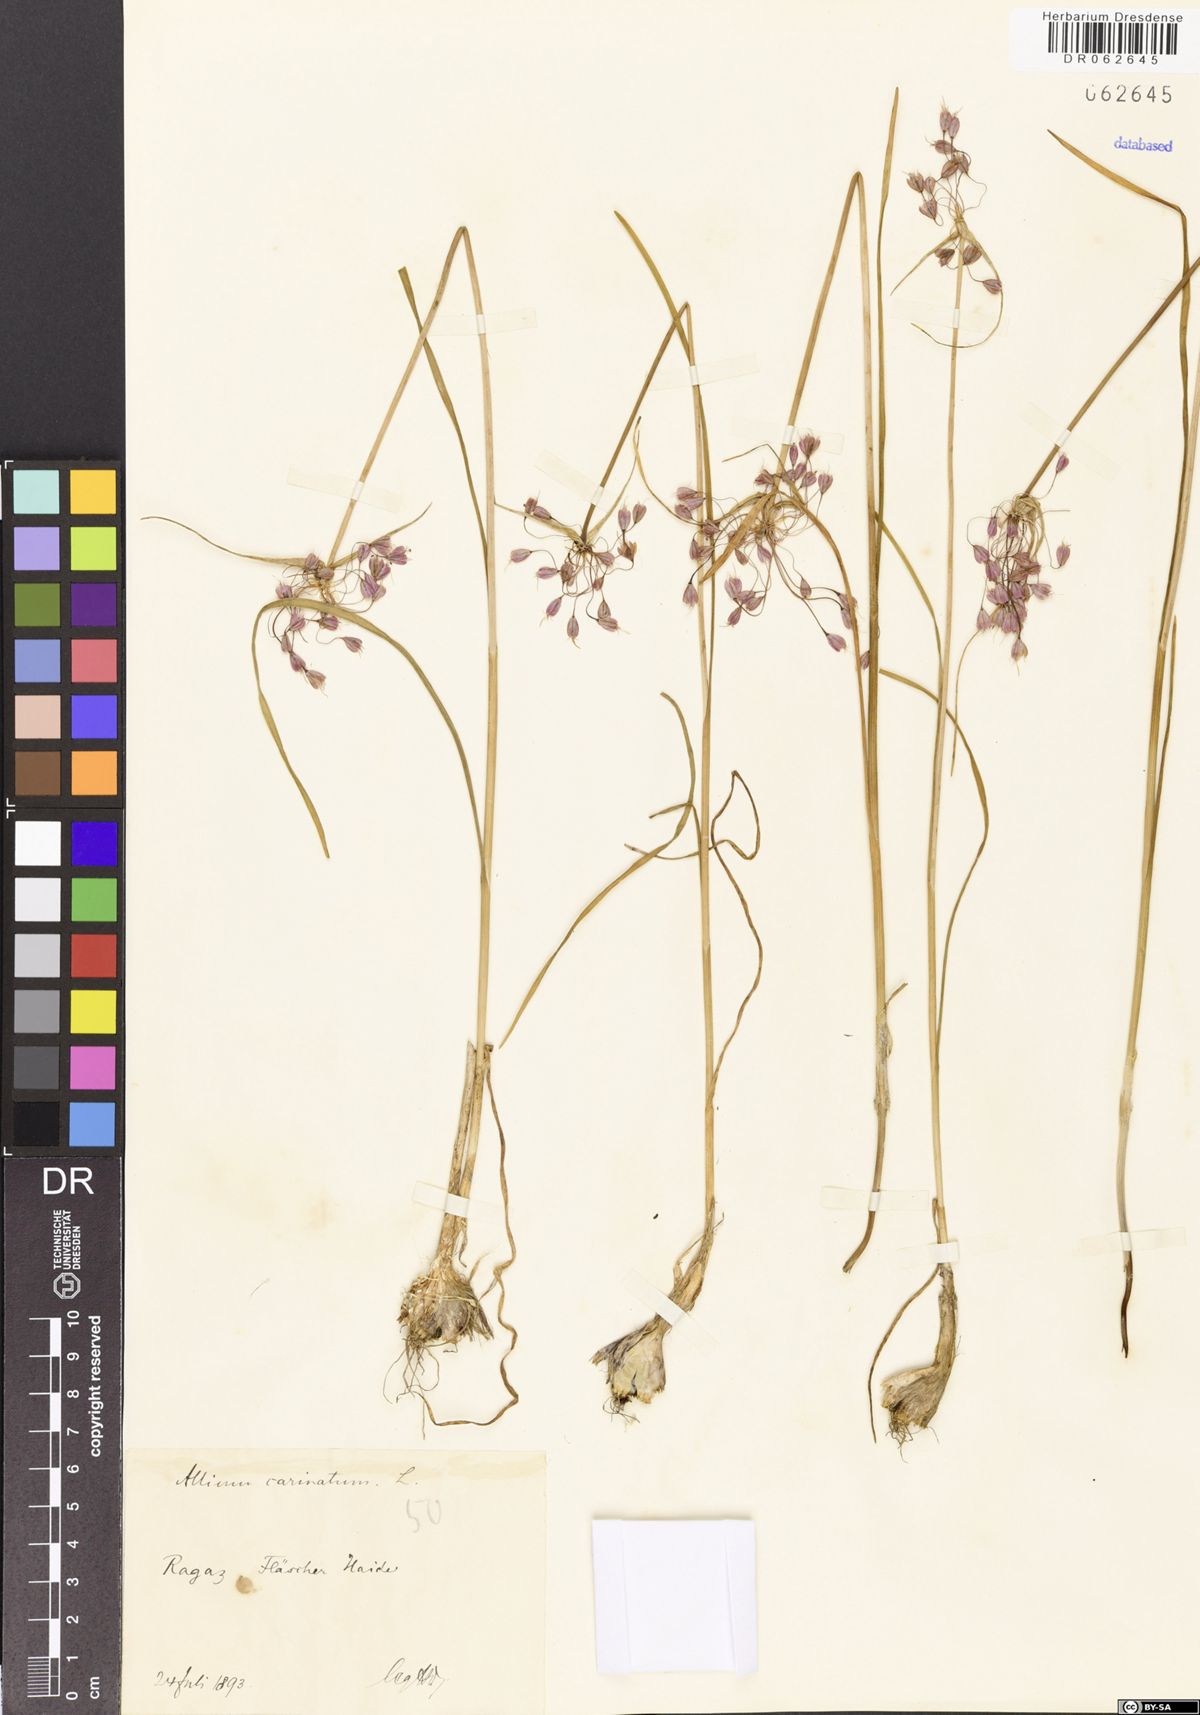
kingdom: Plantae
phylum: Tracheophyta
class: Liliopsida
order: Asparagales
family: Amaryllidaceae
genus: Allium
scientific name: Allium carinatum
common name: Keeled garlic
